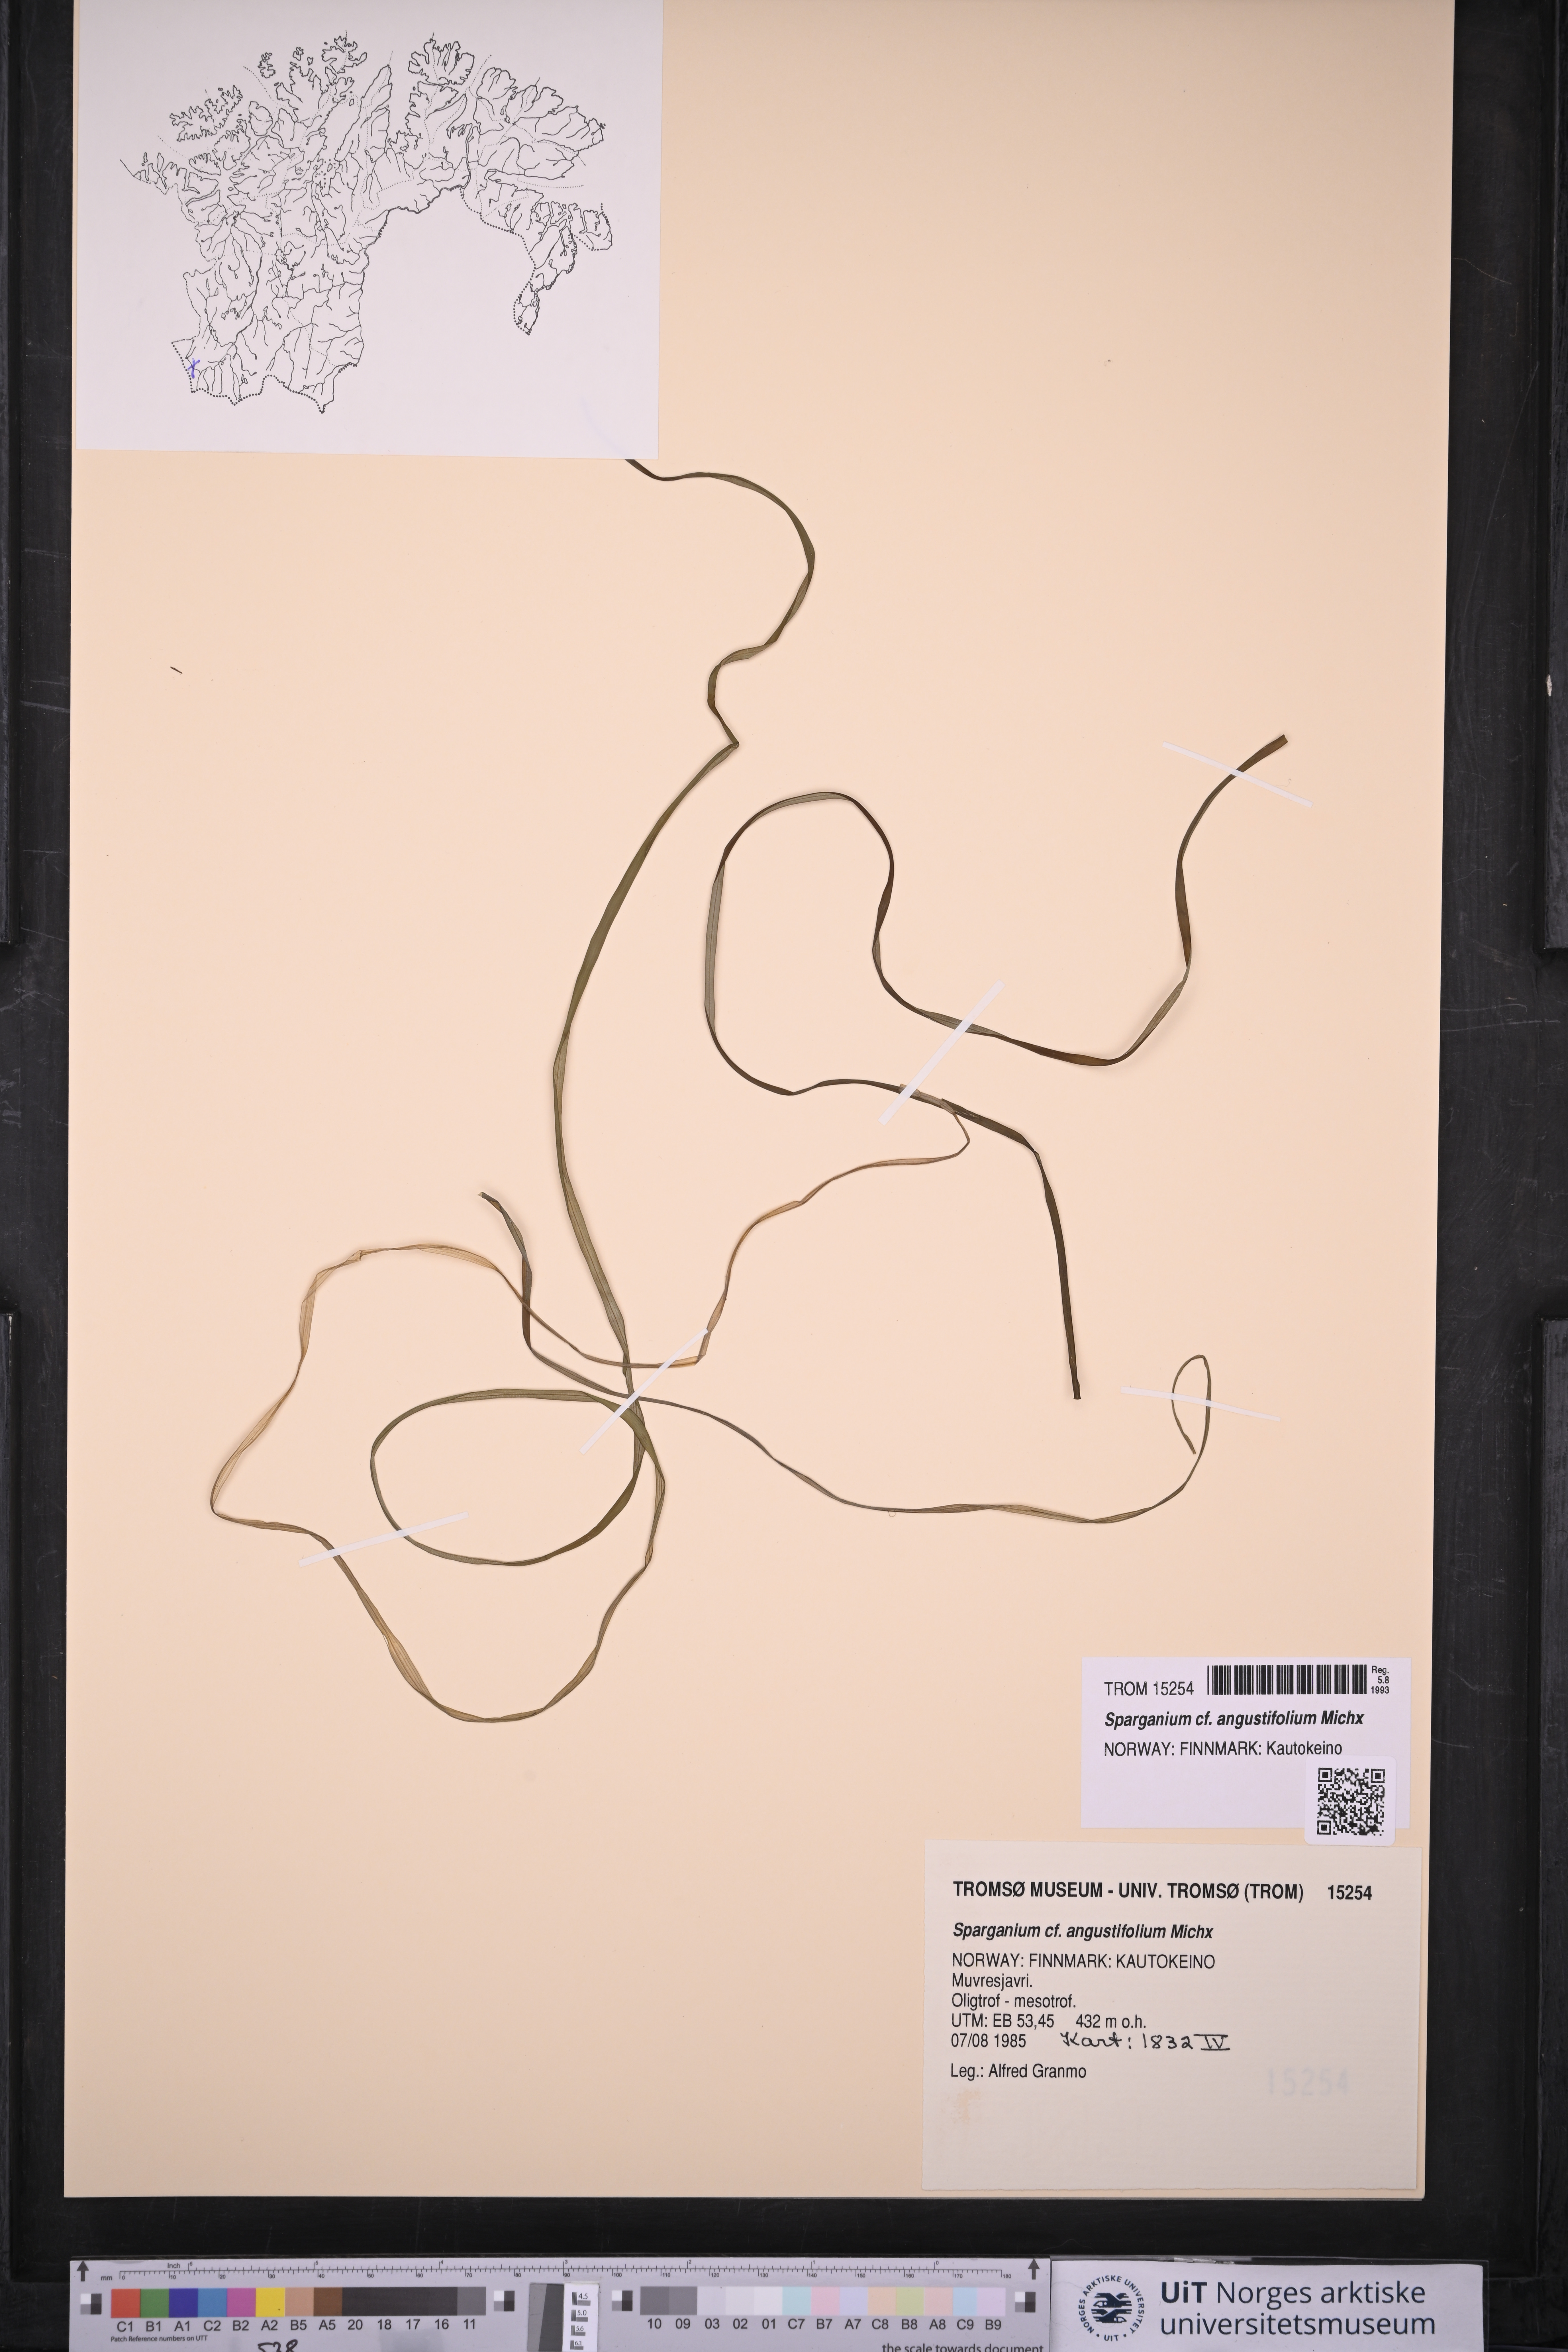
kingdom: Plantae
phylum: Tracheophyta
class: Liliopsida
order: Poales
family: Typhaceae
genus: Sparganium
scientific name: Sparganium angustifolium
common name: Floating bur-reed
